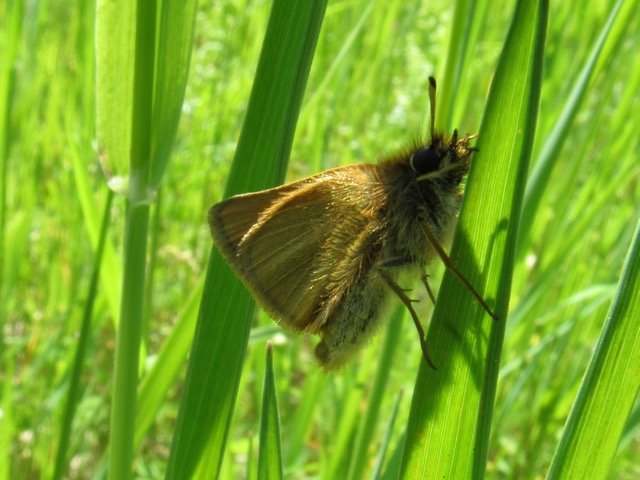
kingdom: Animalia
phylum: Arthropoda
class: Insecta
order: Lepidoptera
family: Hesperiidae
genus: Thymelicus
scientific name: Thymelicus lineola
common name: European Skipper
